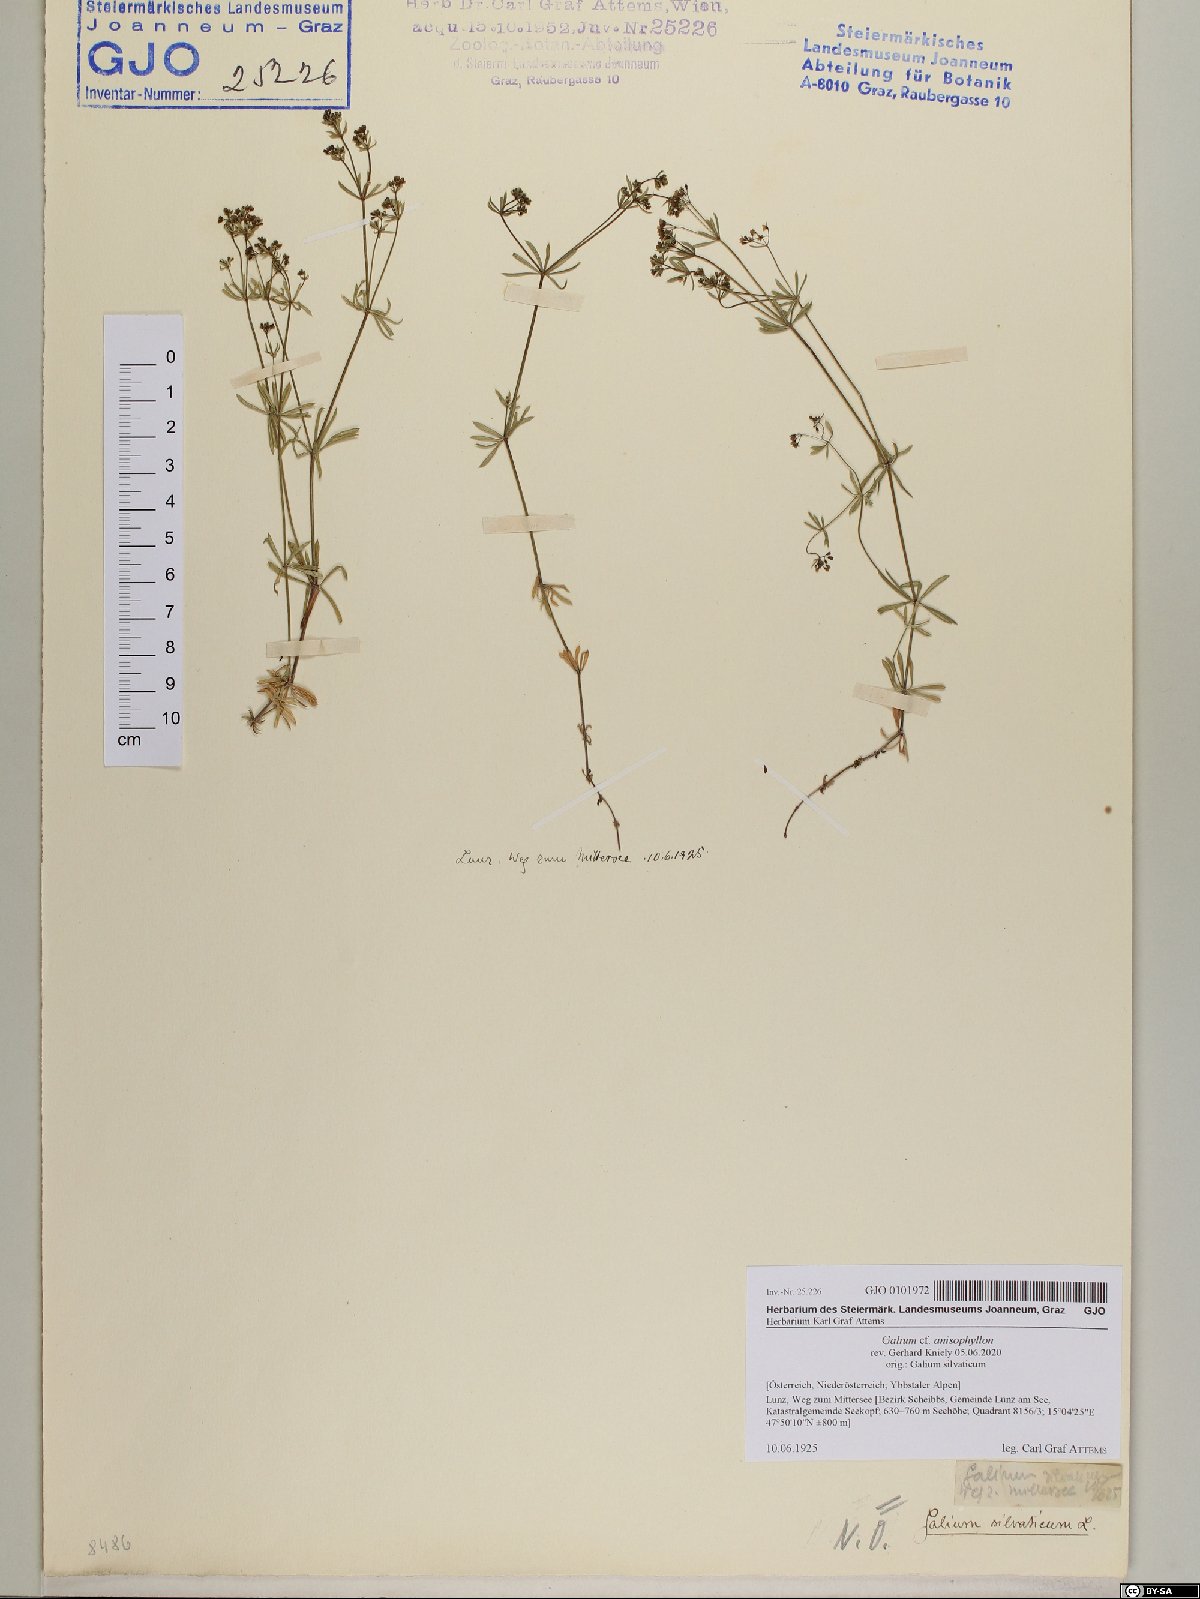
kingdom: Plantae
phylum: Tracheophyta
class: Magnoliopsida
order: Gentianales
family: Rubiaceae
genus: Galium
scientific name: Galium anisophyllon
